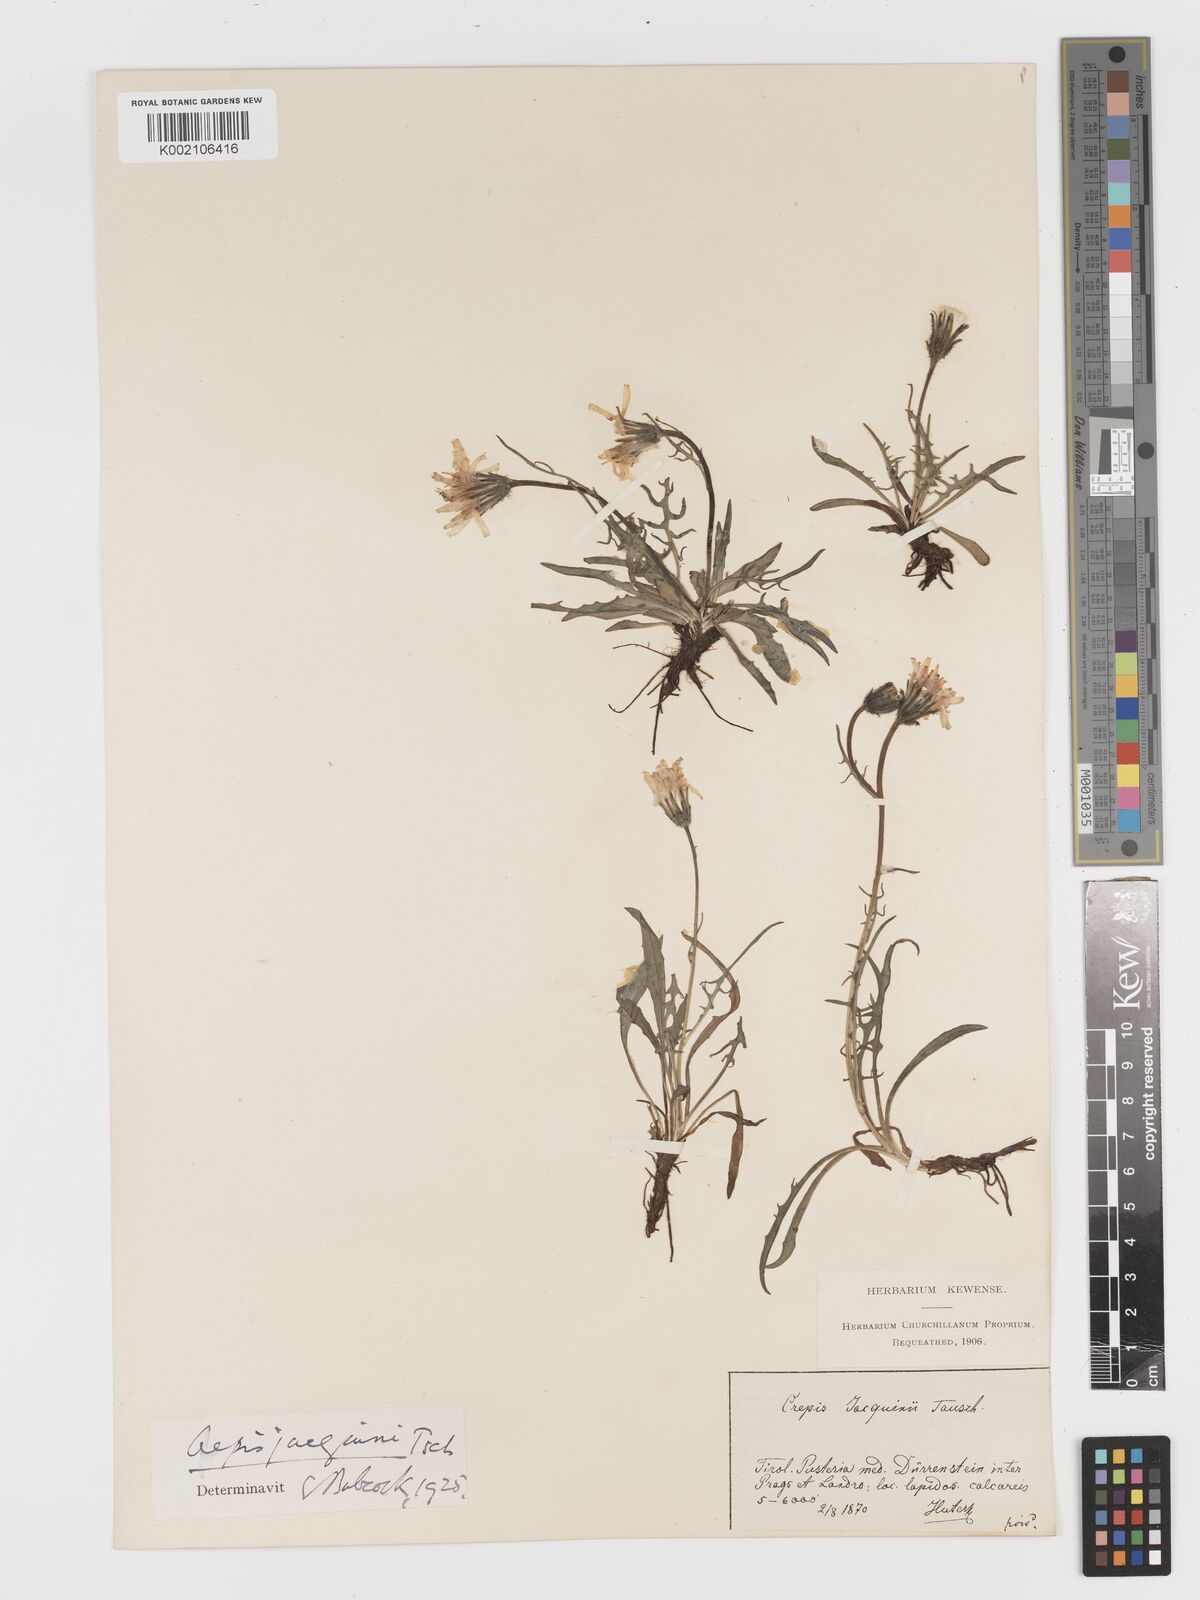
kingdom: Plantae
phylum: Tracheophyta
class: Magnoliopsida
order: Asterales
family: Asteraceae
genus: Crepis
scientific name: Crepis jacquinii
